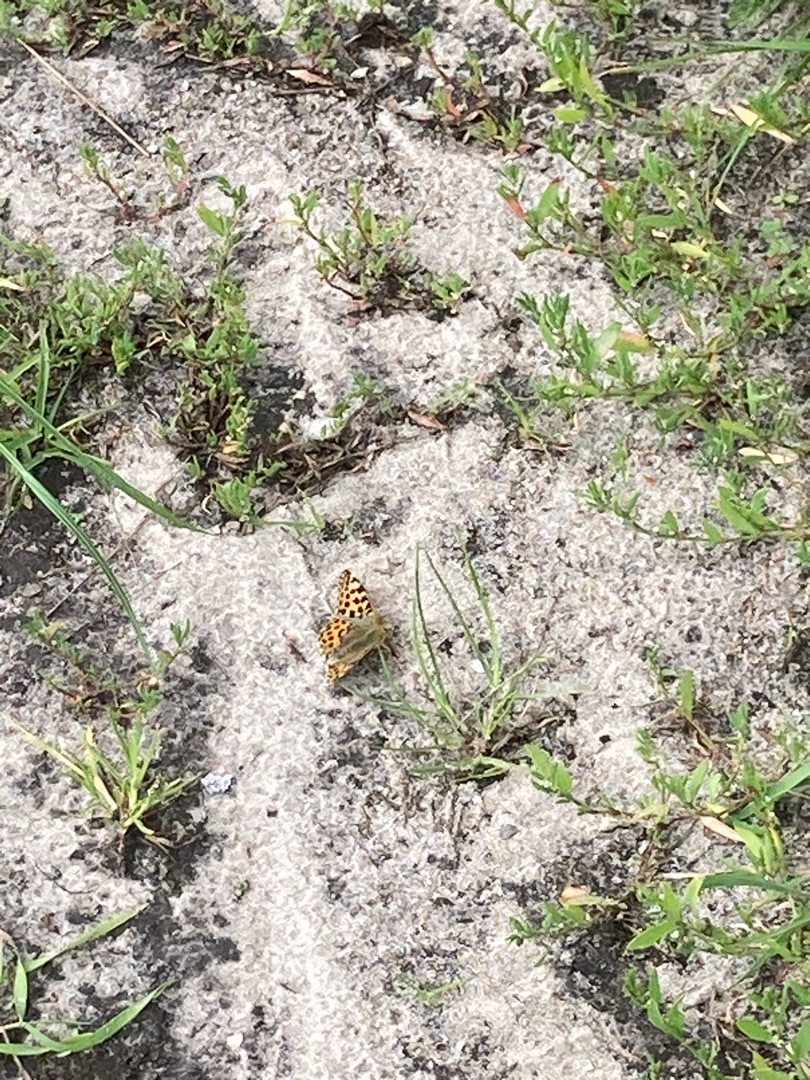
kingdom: Animalia
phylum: Arthropoda
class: Insecta
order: Lepidoptera
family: Nymphalidae
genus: Issoria
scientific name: Issoria lathonia
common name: Storplettet perlemorsommerfugl
